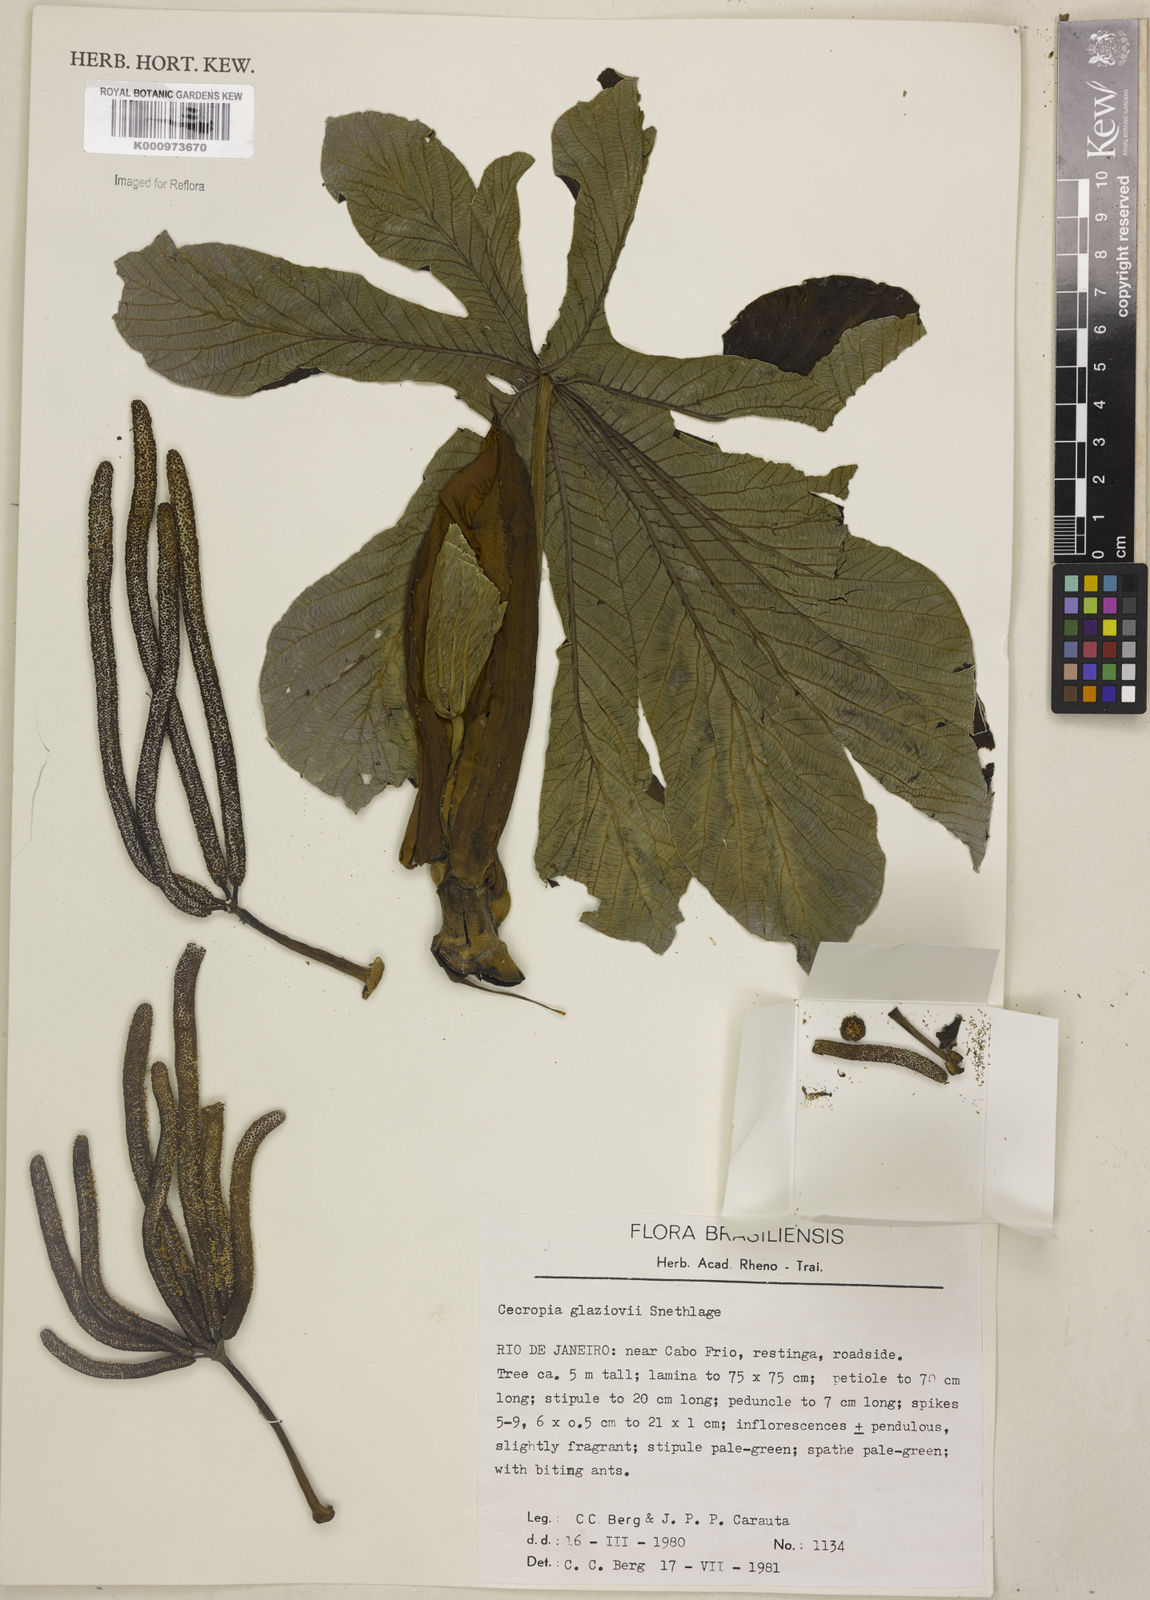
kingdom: Plantae
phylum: Tracheophyta
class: Magnoliopsida
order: Rosales
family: Urticaceae
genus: Cecropia
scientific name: Cecropia glaziovii
